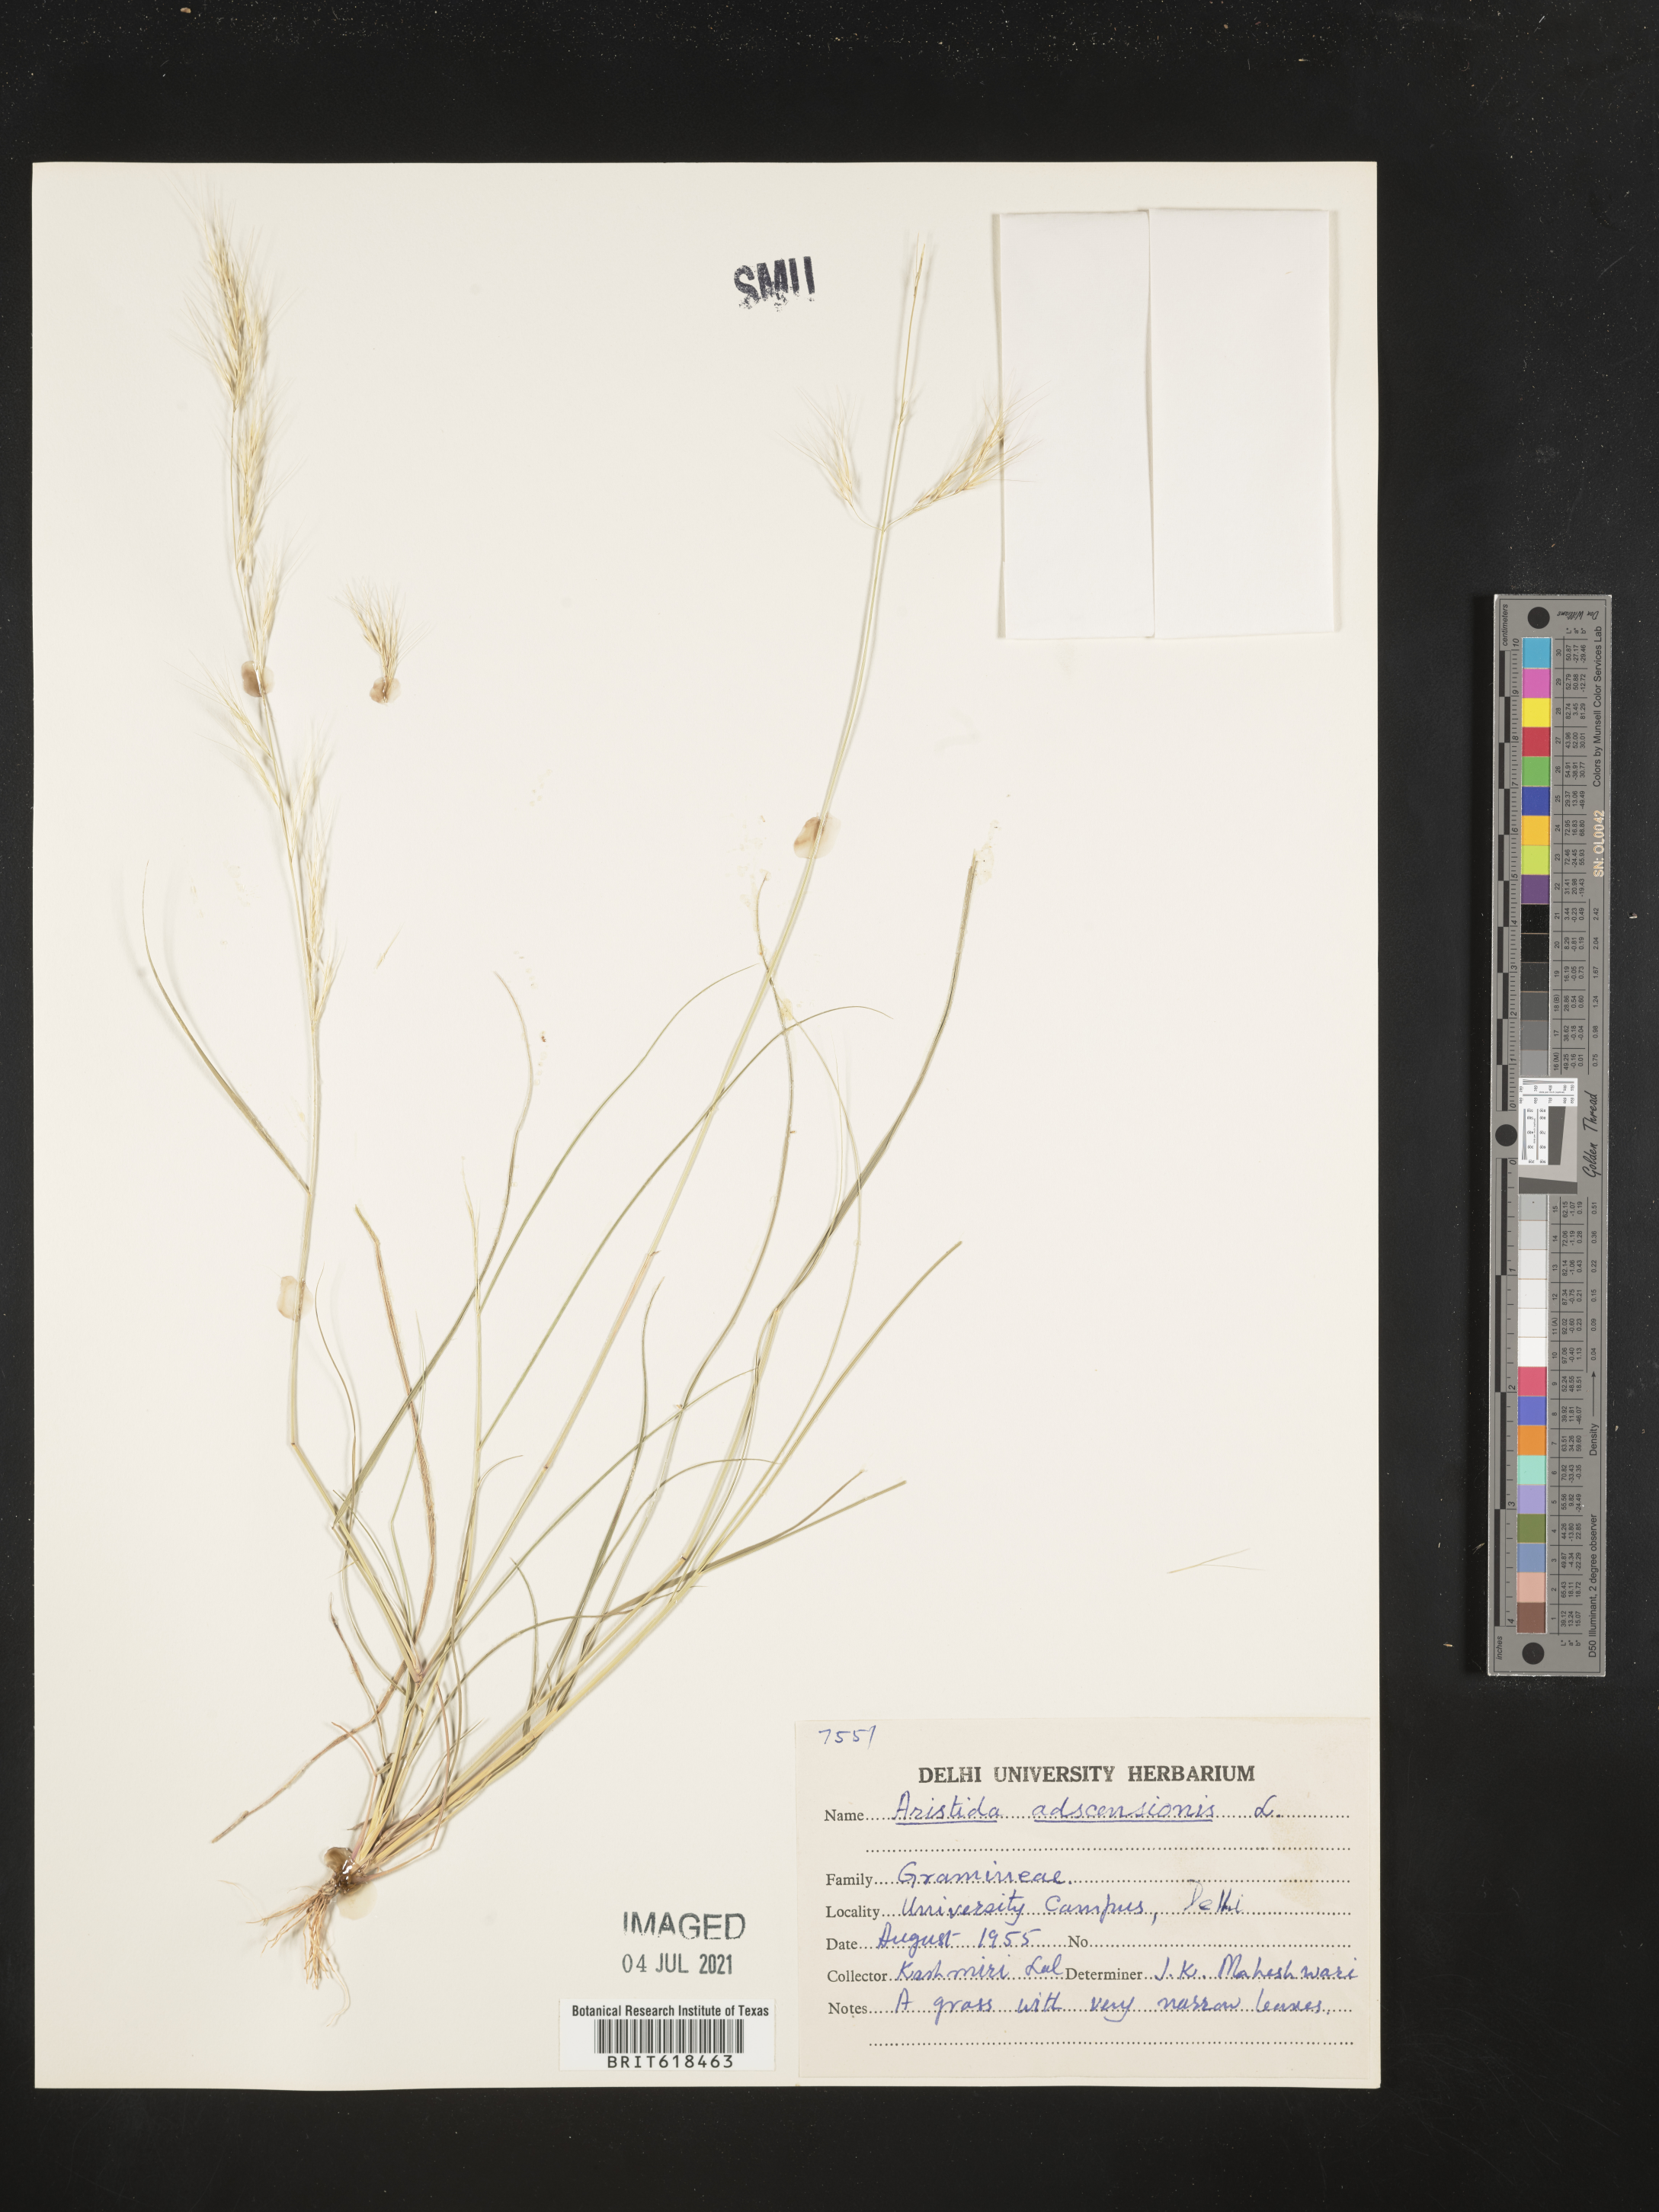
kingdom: Plantae
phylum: Tracheophyta
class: Liliopsida
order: Poales
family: Poaceae
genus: Aristida
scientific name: Aristida adscensionis
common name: Sixweeks threeawn
